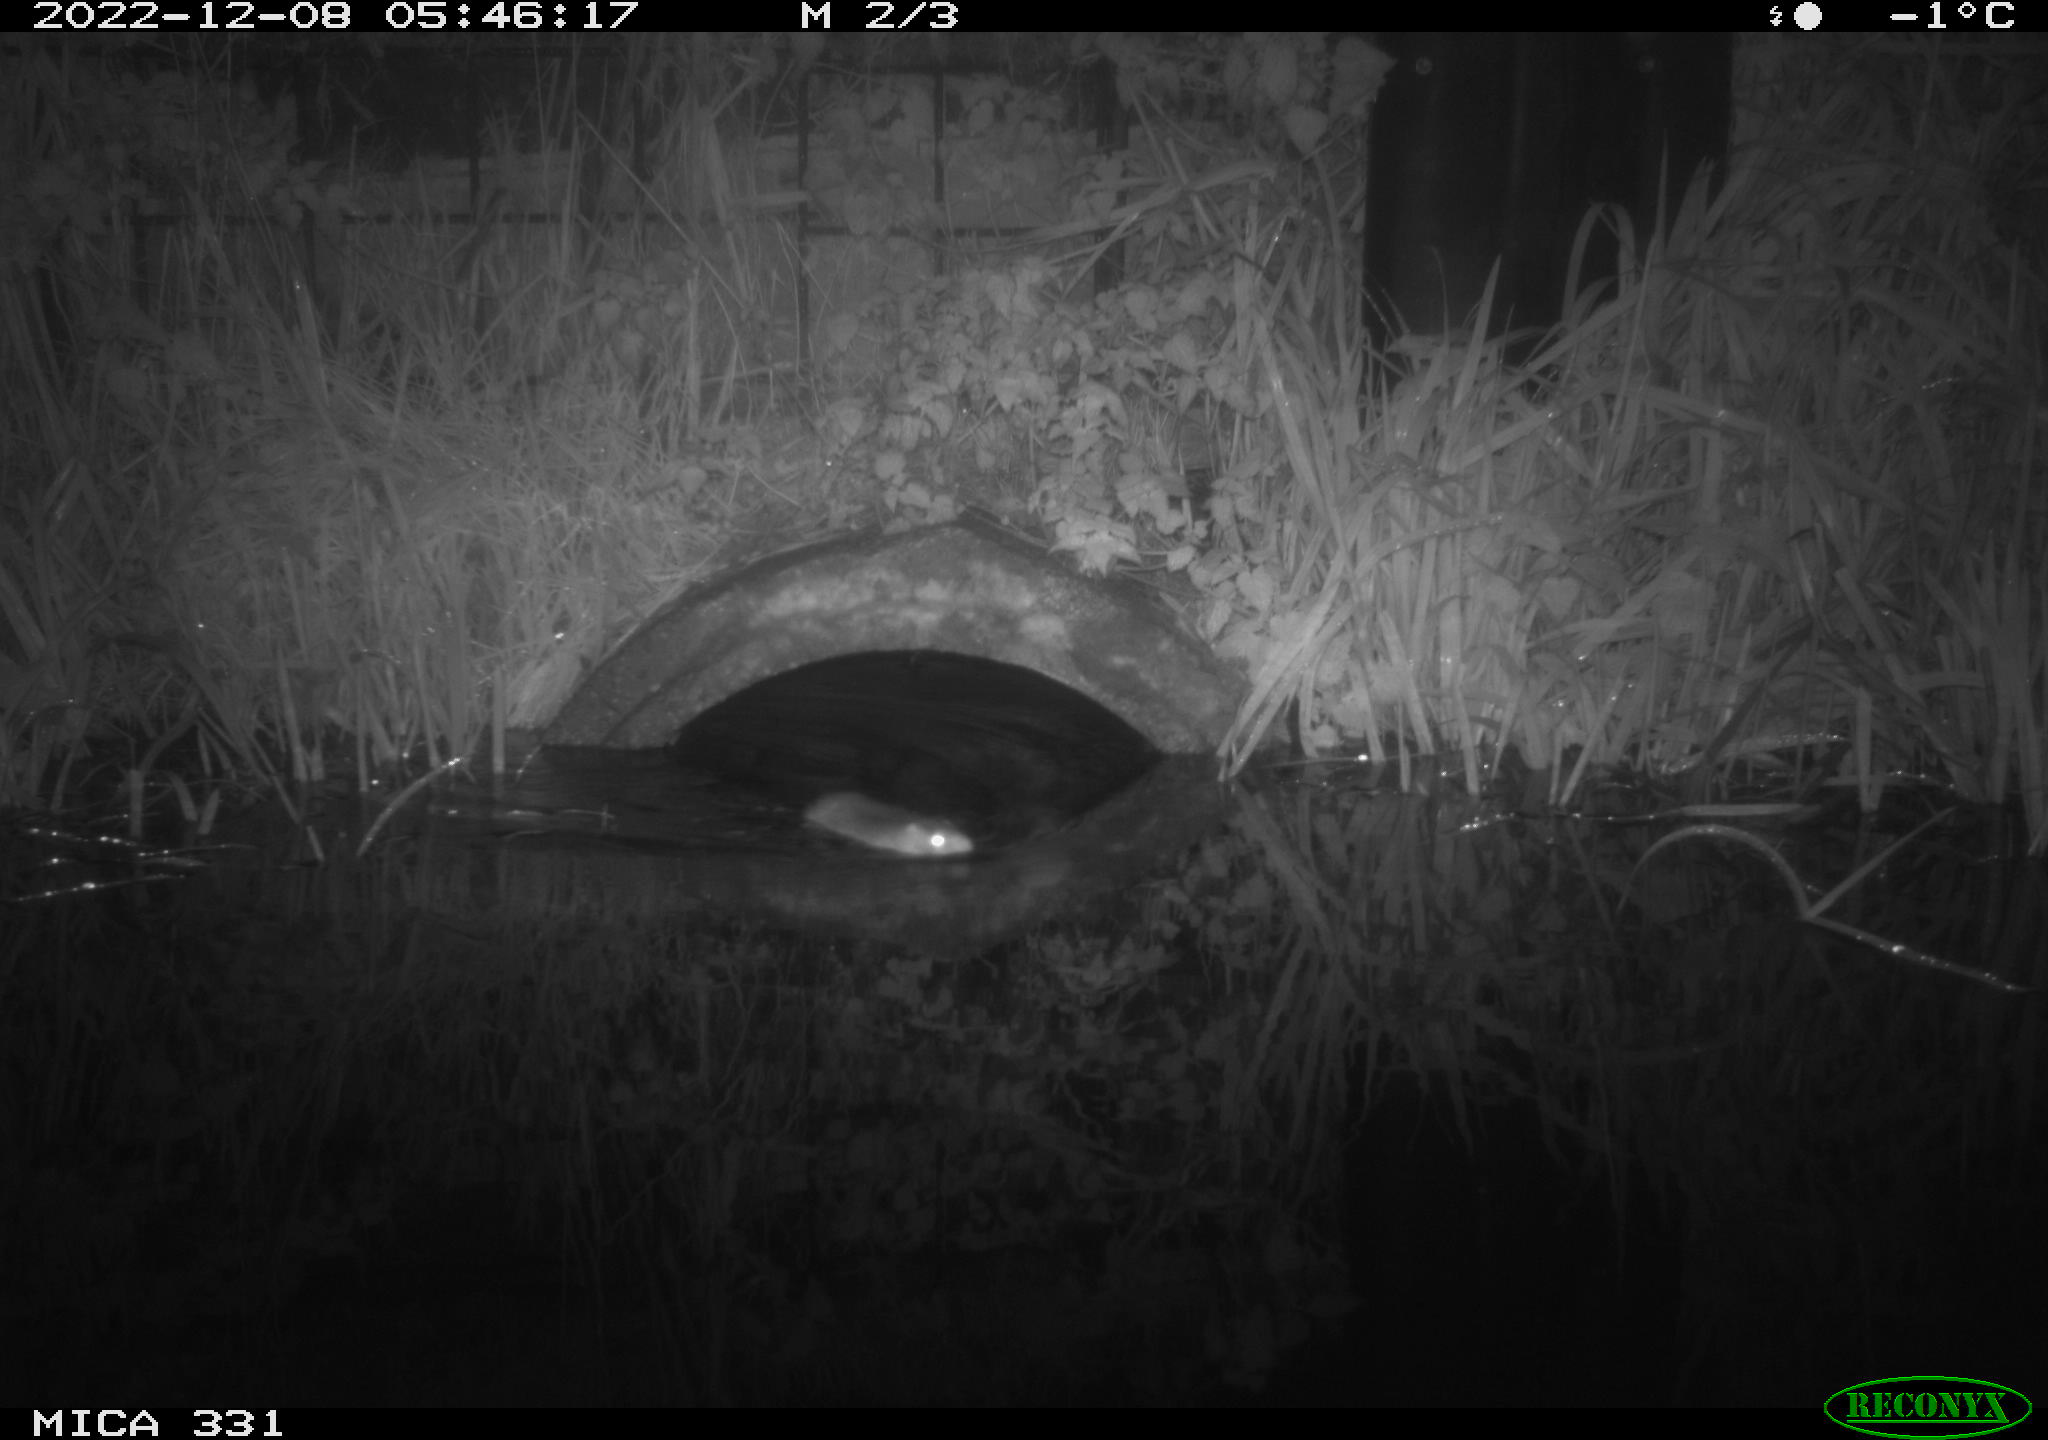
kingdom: Animalia
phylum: Chordata
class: Mammalia
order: Rodentia
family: Muridae
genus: Rattus
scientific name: Rattus norvegicus
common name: Brown rat
